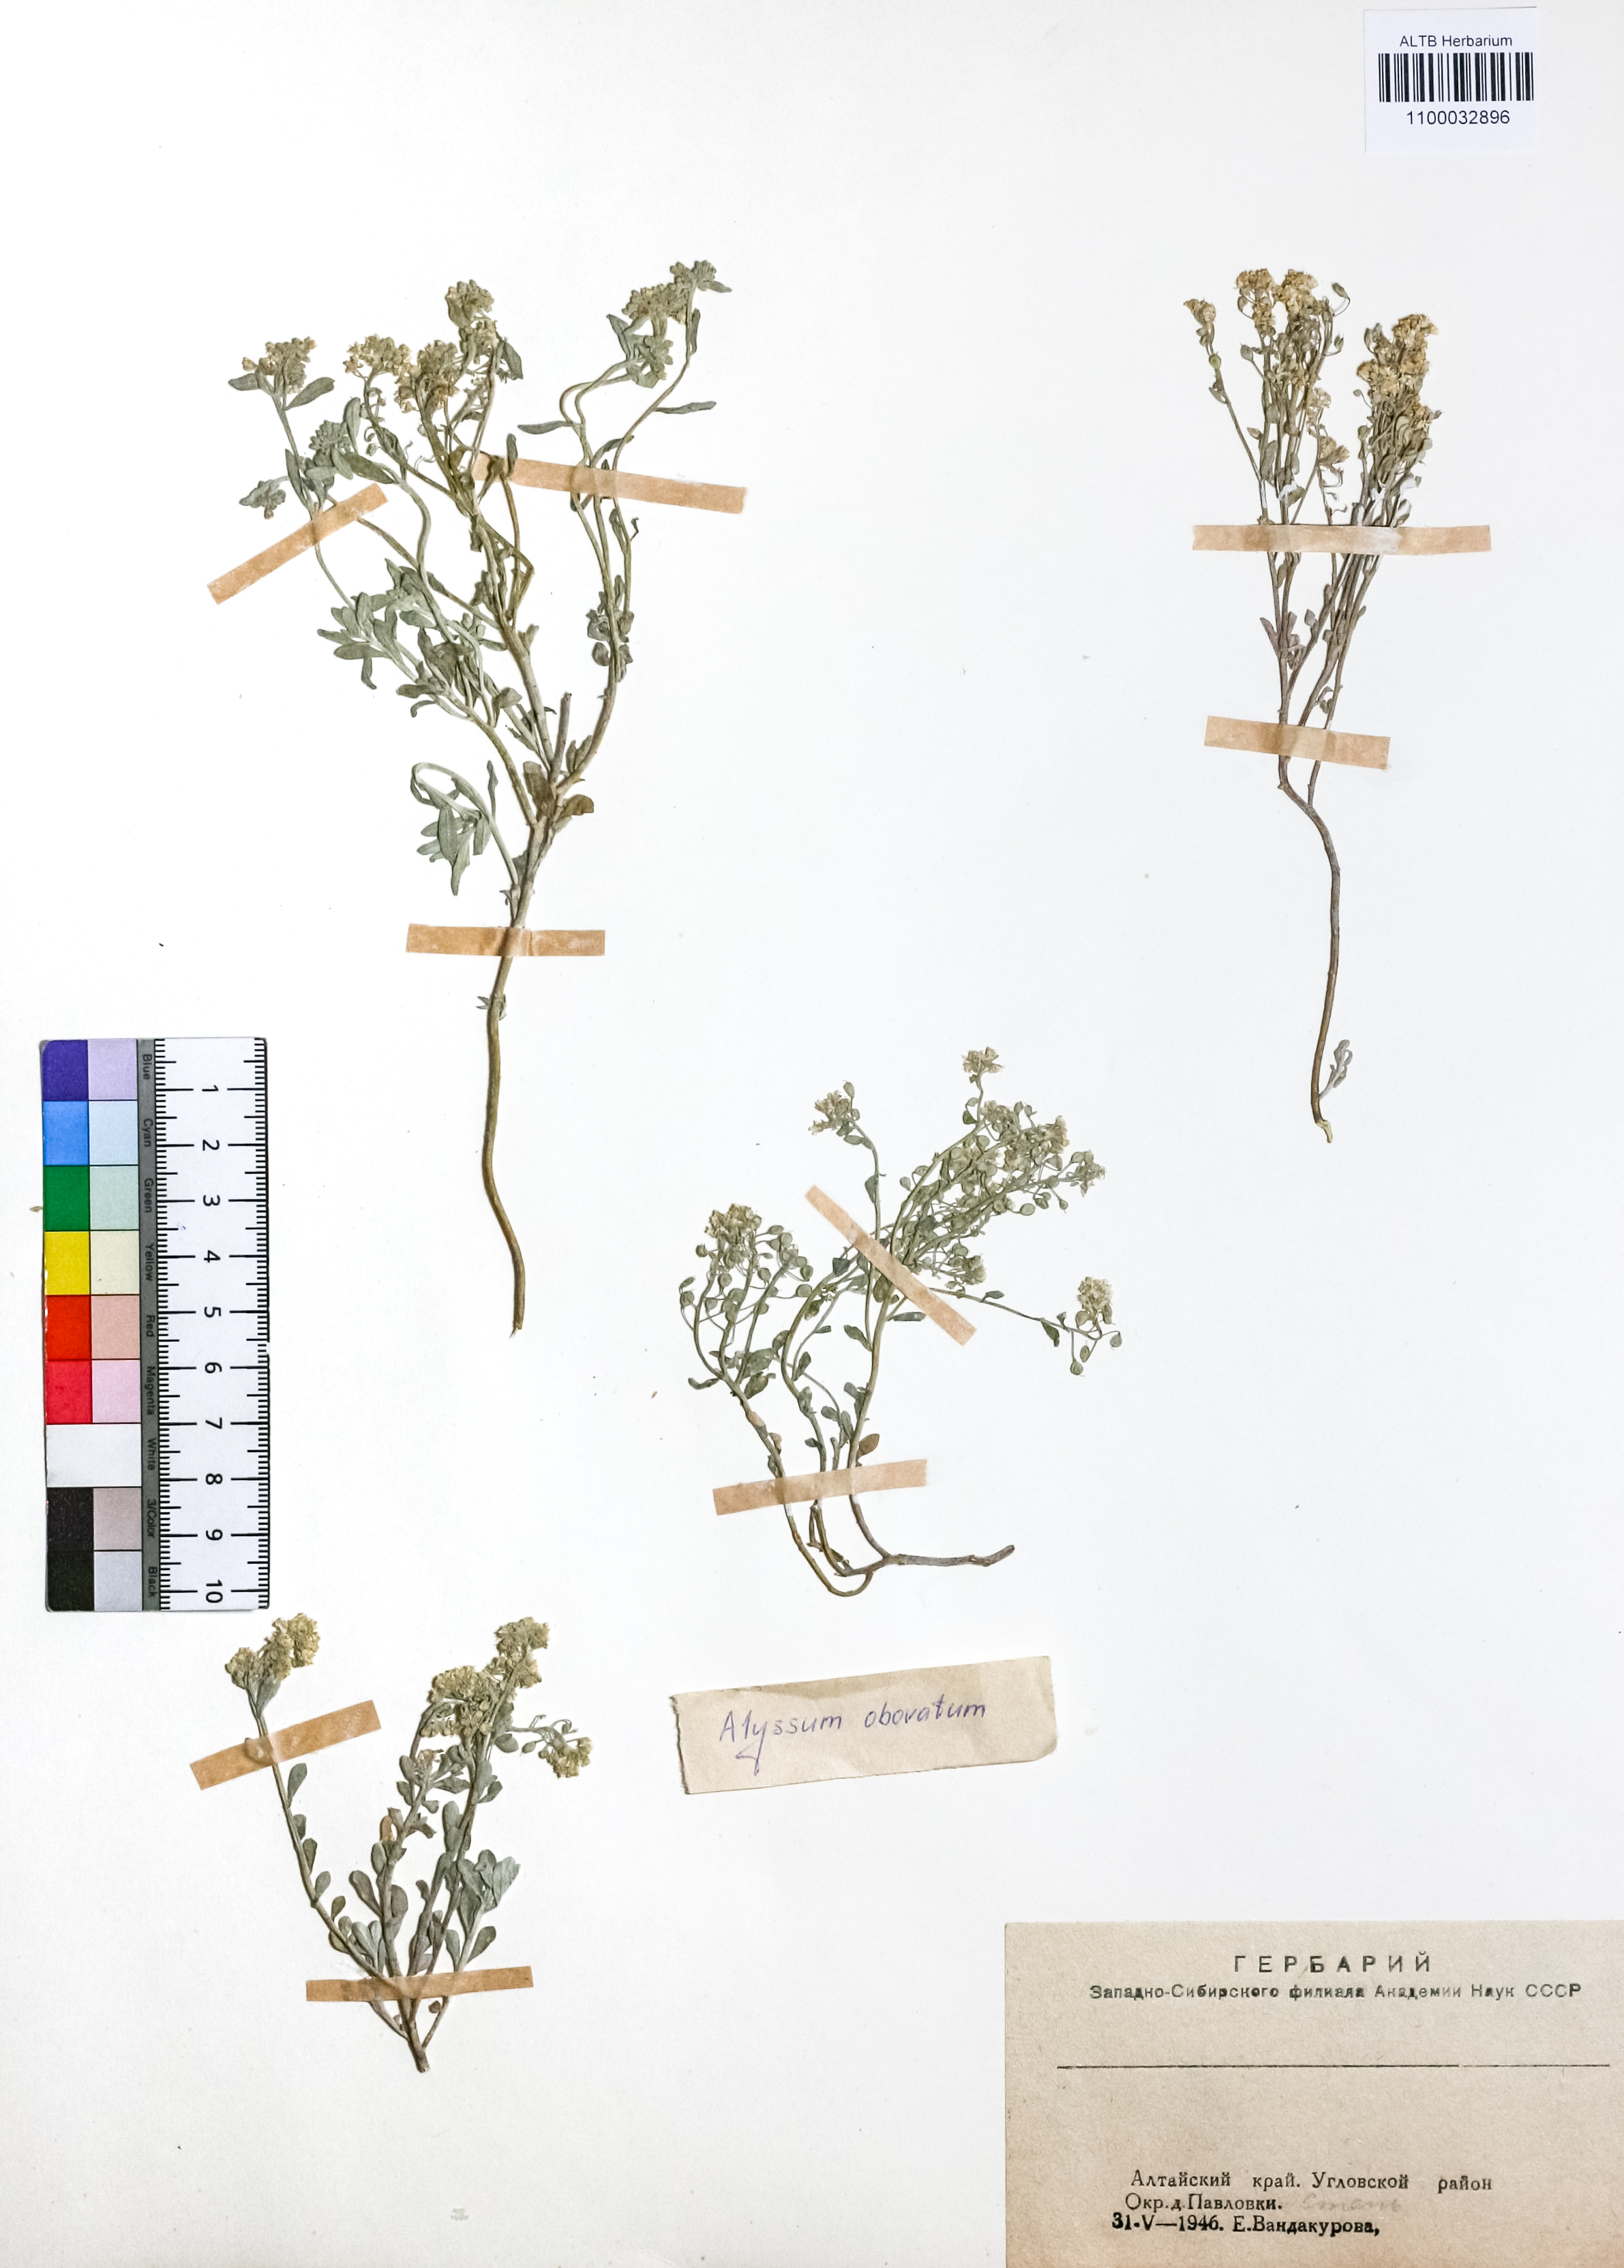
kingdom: Plantae
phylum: Tracheophyta
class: Magnoliopsida
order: Brassicales
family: Brassicaceae
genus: Odontarrhena
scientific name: Odontarrhena obovata
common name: American alyssum
